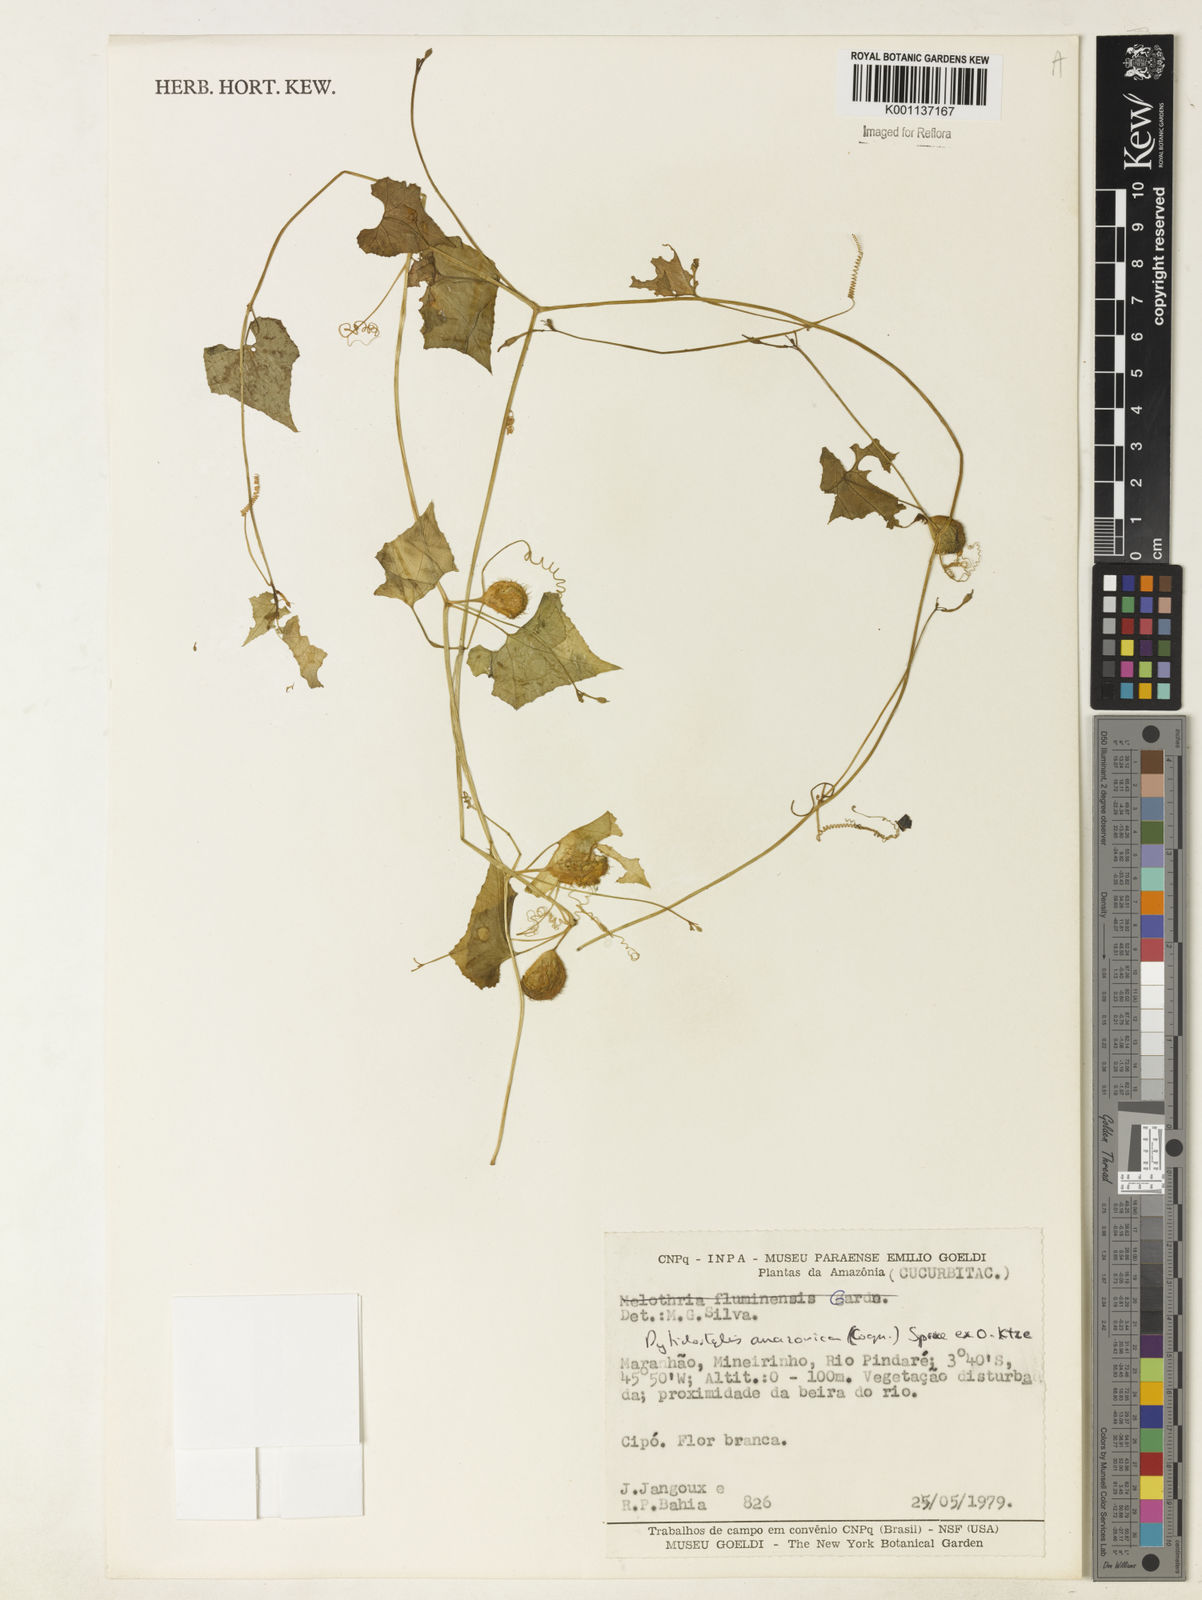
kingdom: Plantae
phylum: Tracheophyta
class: Magnoliopsida
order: Cucurbitales
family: Cucurbitaceae
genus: Cyclanthera
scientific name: Cyclanthera carthagenensis
